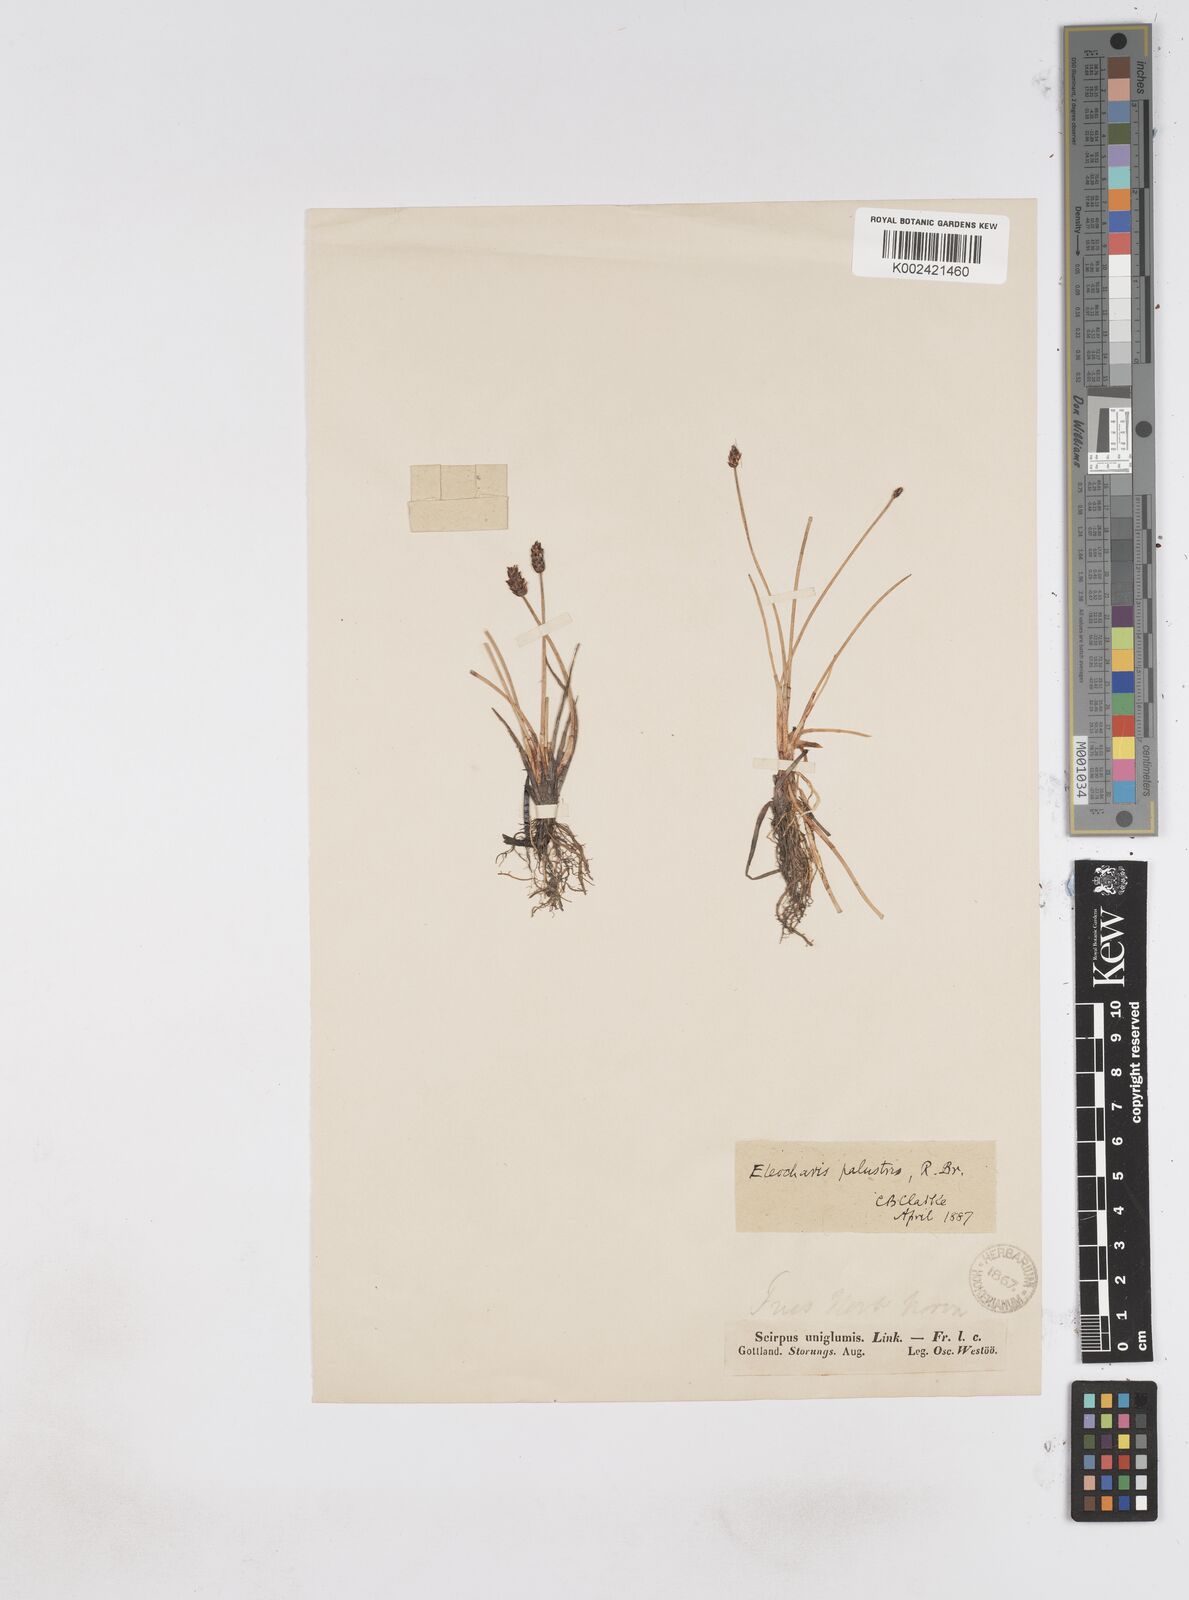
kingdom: Plantae
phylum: Tracheophyta
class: Liliopsida
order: Poales
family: Cyperaceae
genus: Eleocharis
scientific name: Eleocharis uniglumis
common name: Slender spike-rush
